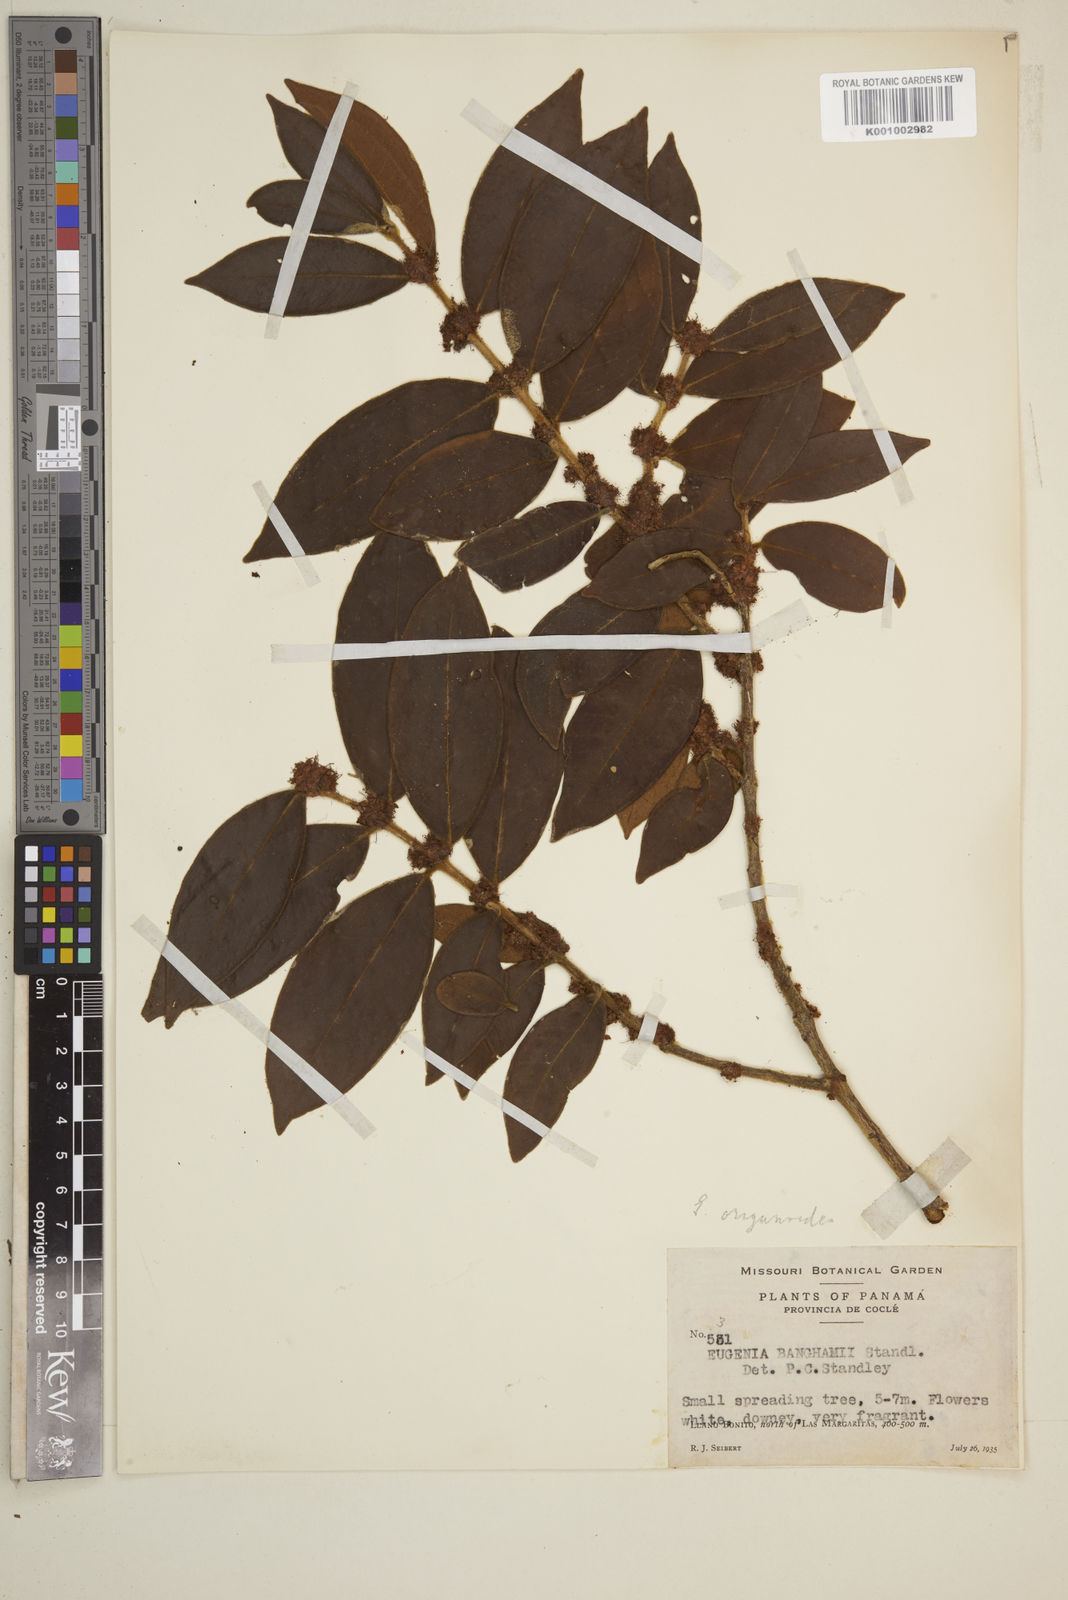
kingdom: Plantae
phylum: Tracheophyta
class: Magnoliopsida
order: Myrtales
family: Myrtaceae
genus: Eugenia
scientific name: Eugenia venezuelensis
